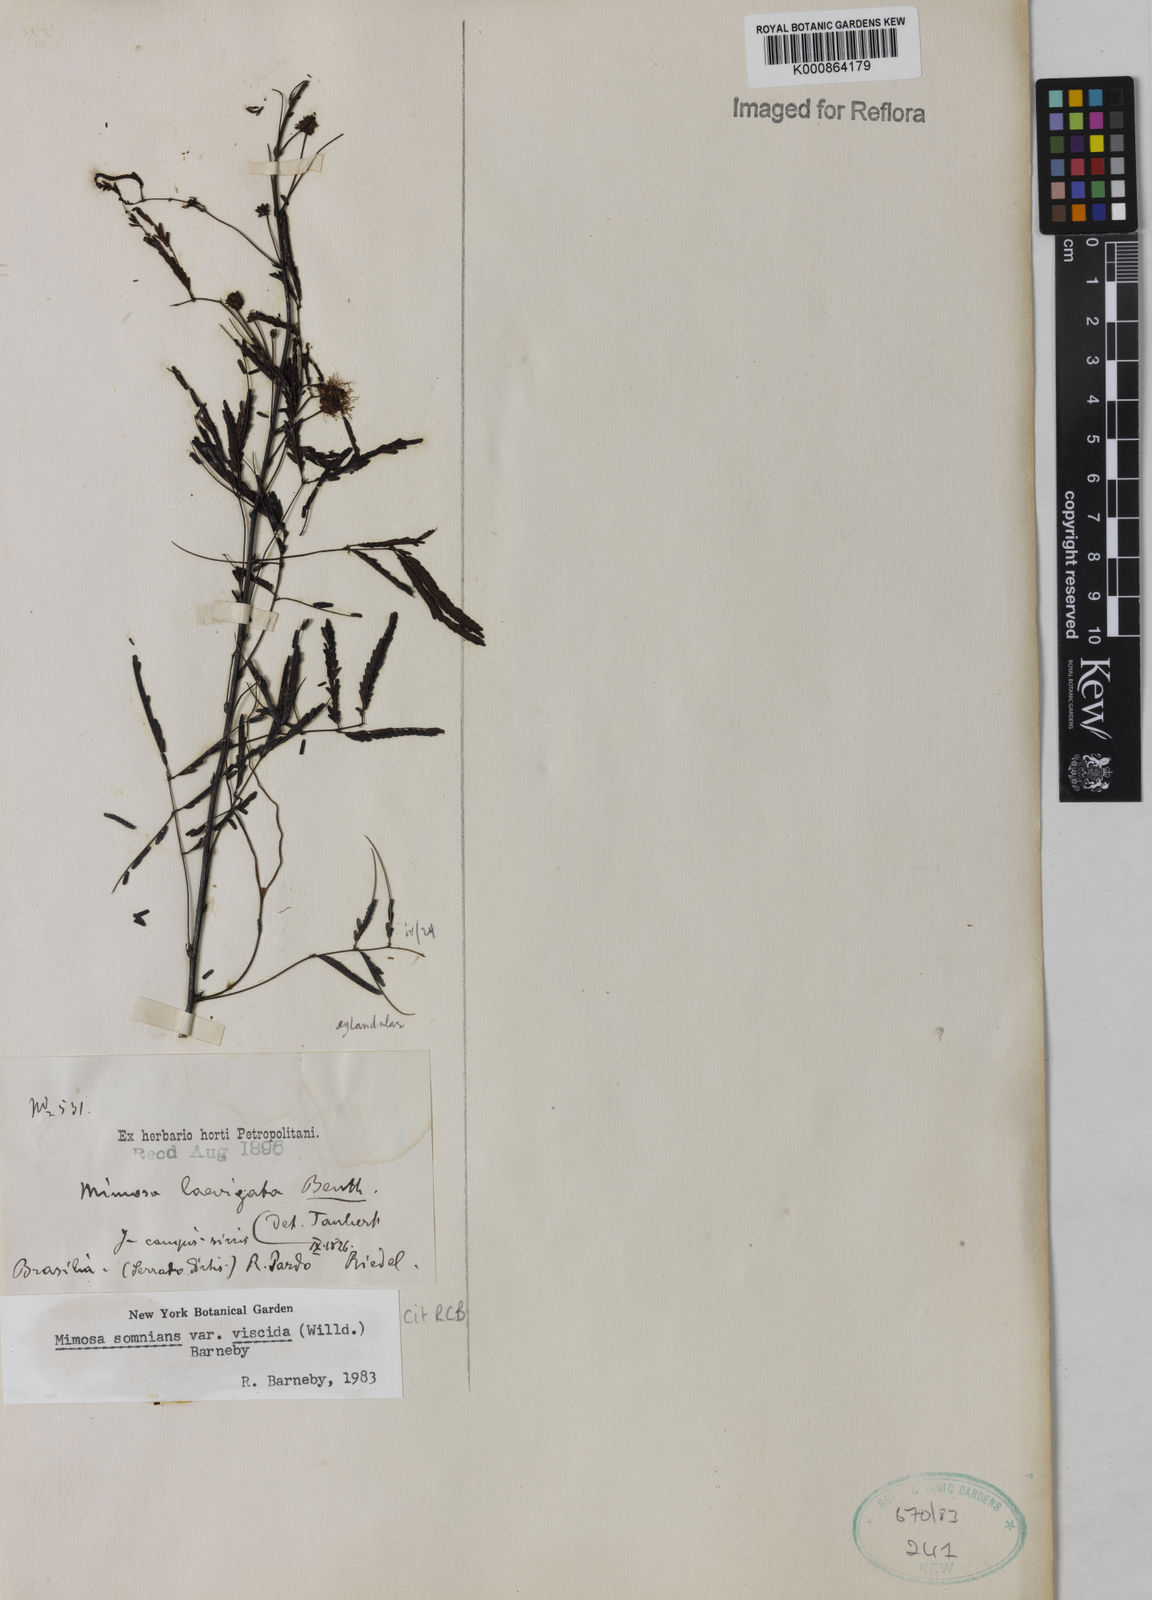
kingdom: Plantae
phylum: Tracheophyta
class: Magnoliopsida
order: Fabales
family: Fabaceae
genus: Mimosa
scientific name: Mimosa somnians
